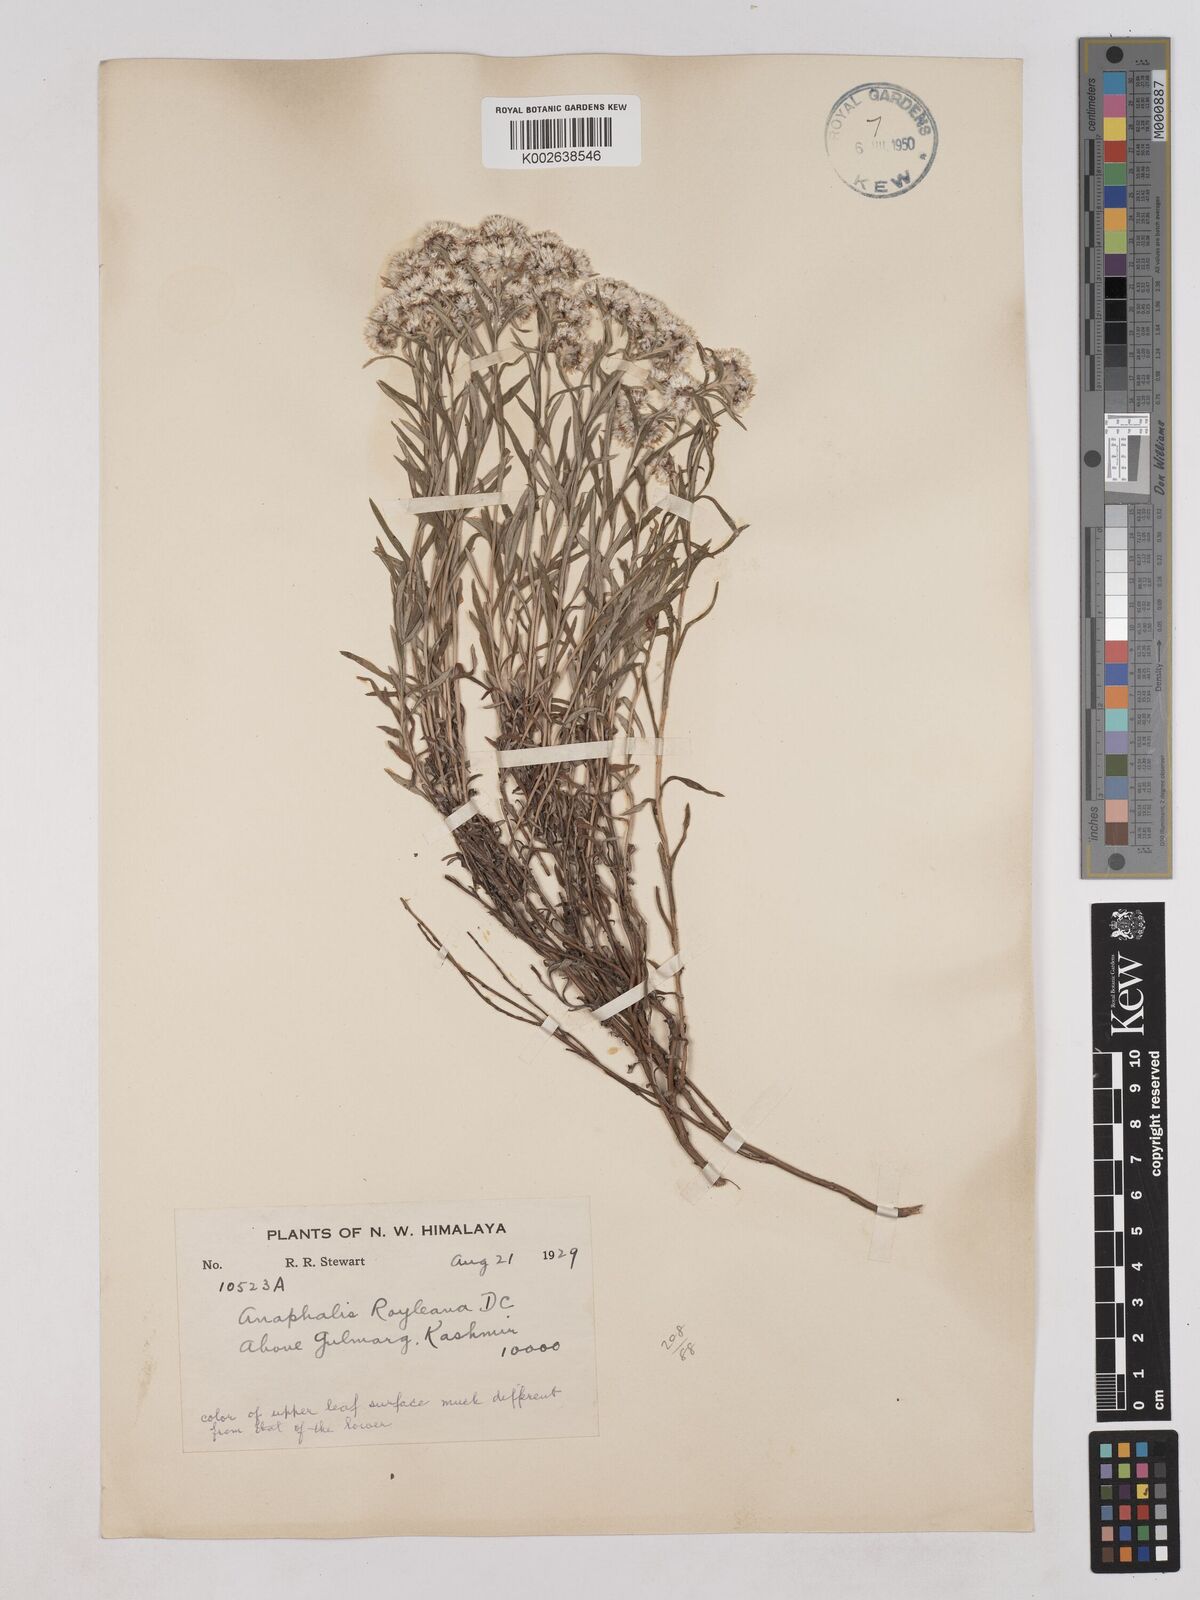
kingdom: Plantae
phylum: Tracheophyta
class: Magnoliopsida
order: Asterales
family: Asteraceae
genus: Anaphalis
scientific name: Anaphalis royleana
